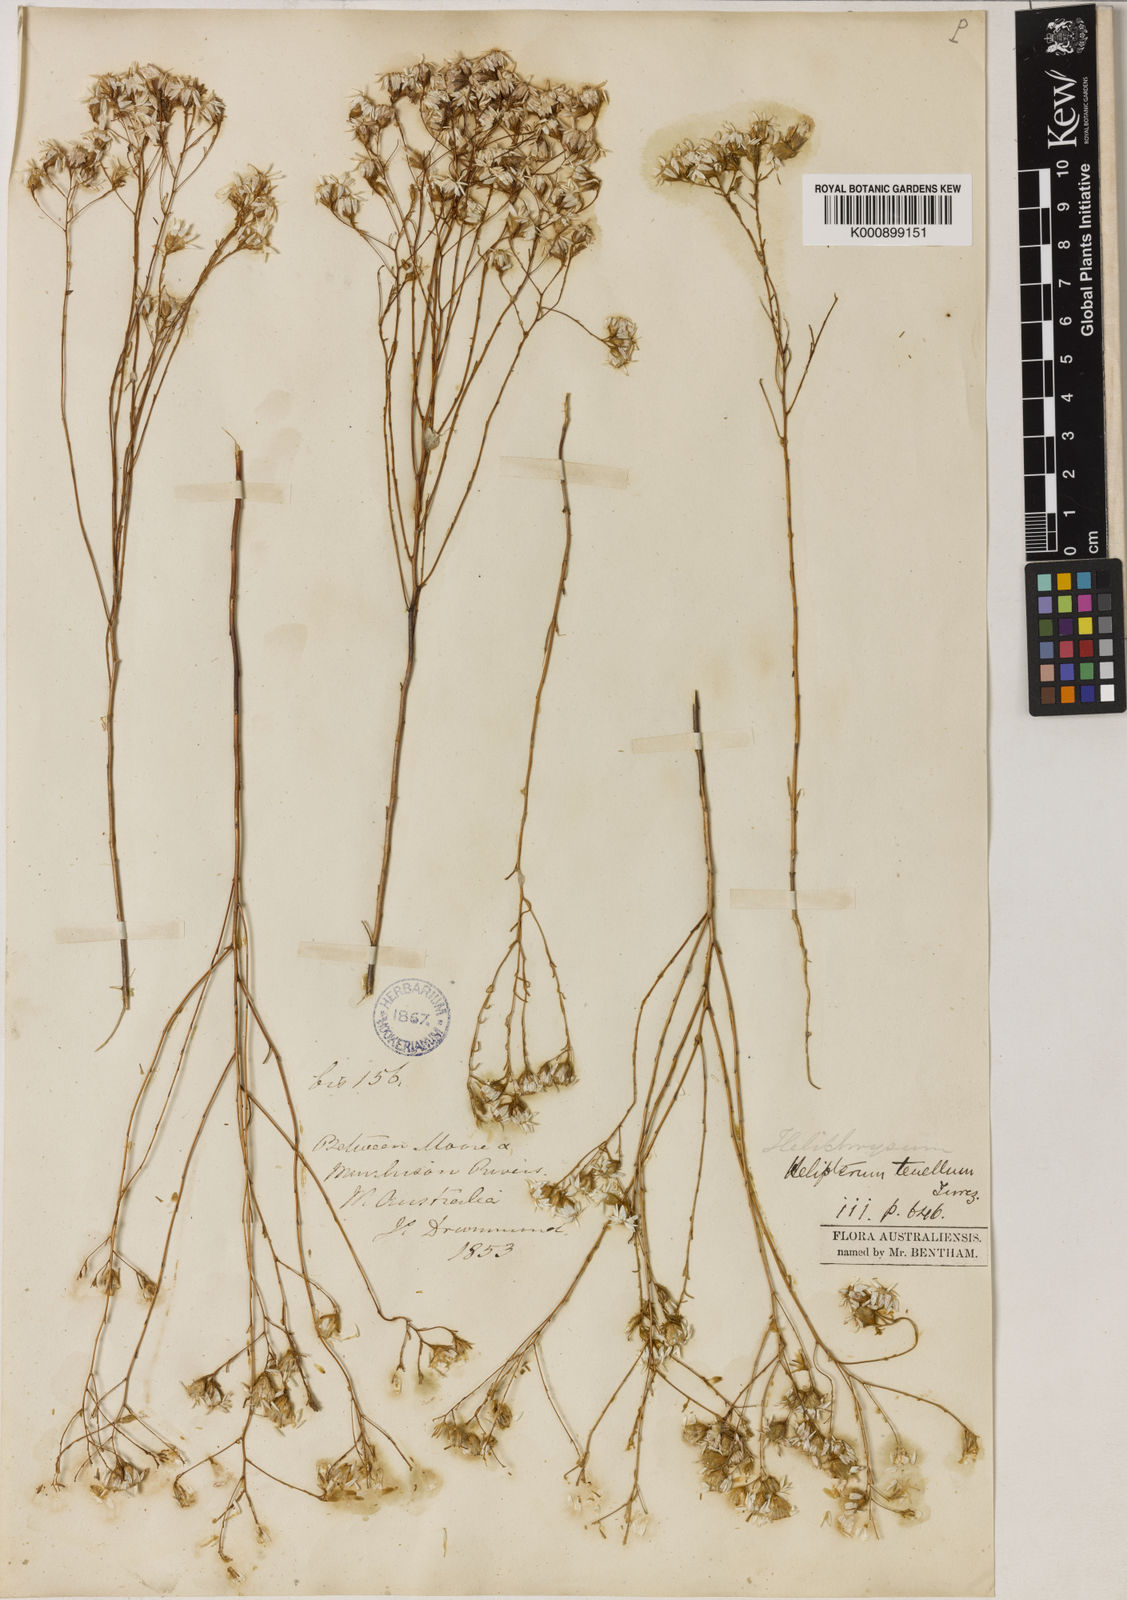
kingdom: Plantae
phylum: Tracheophyta
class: Magnoliopsida
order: Asterales
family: Asteraceae
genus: Erymophyllum
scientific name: Erymophyllum tenellum
